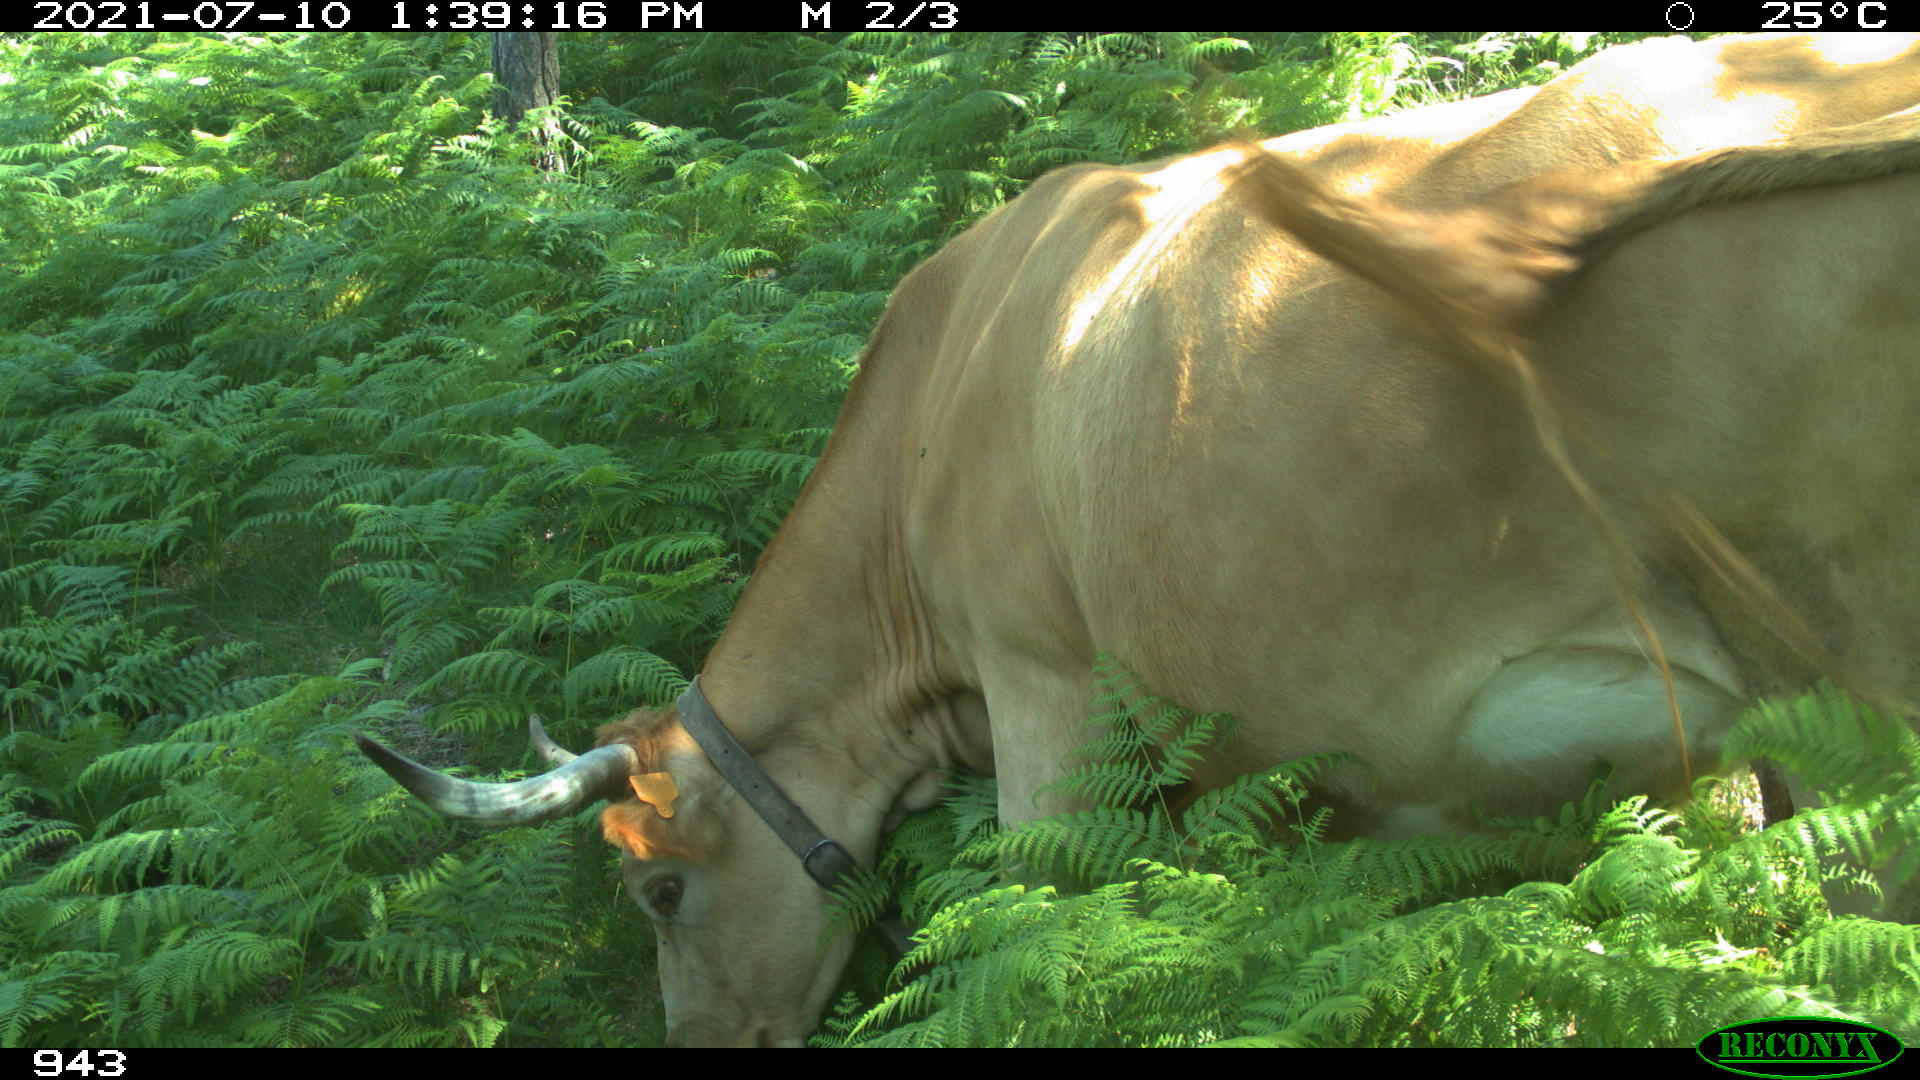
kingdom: Animalia
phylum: Chordata
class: Mammalia
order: Artiodactyla
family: Bovidae
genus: Bos
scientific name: Bos taurus
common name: Domesticated cattle
